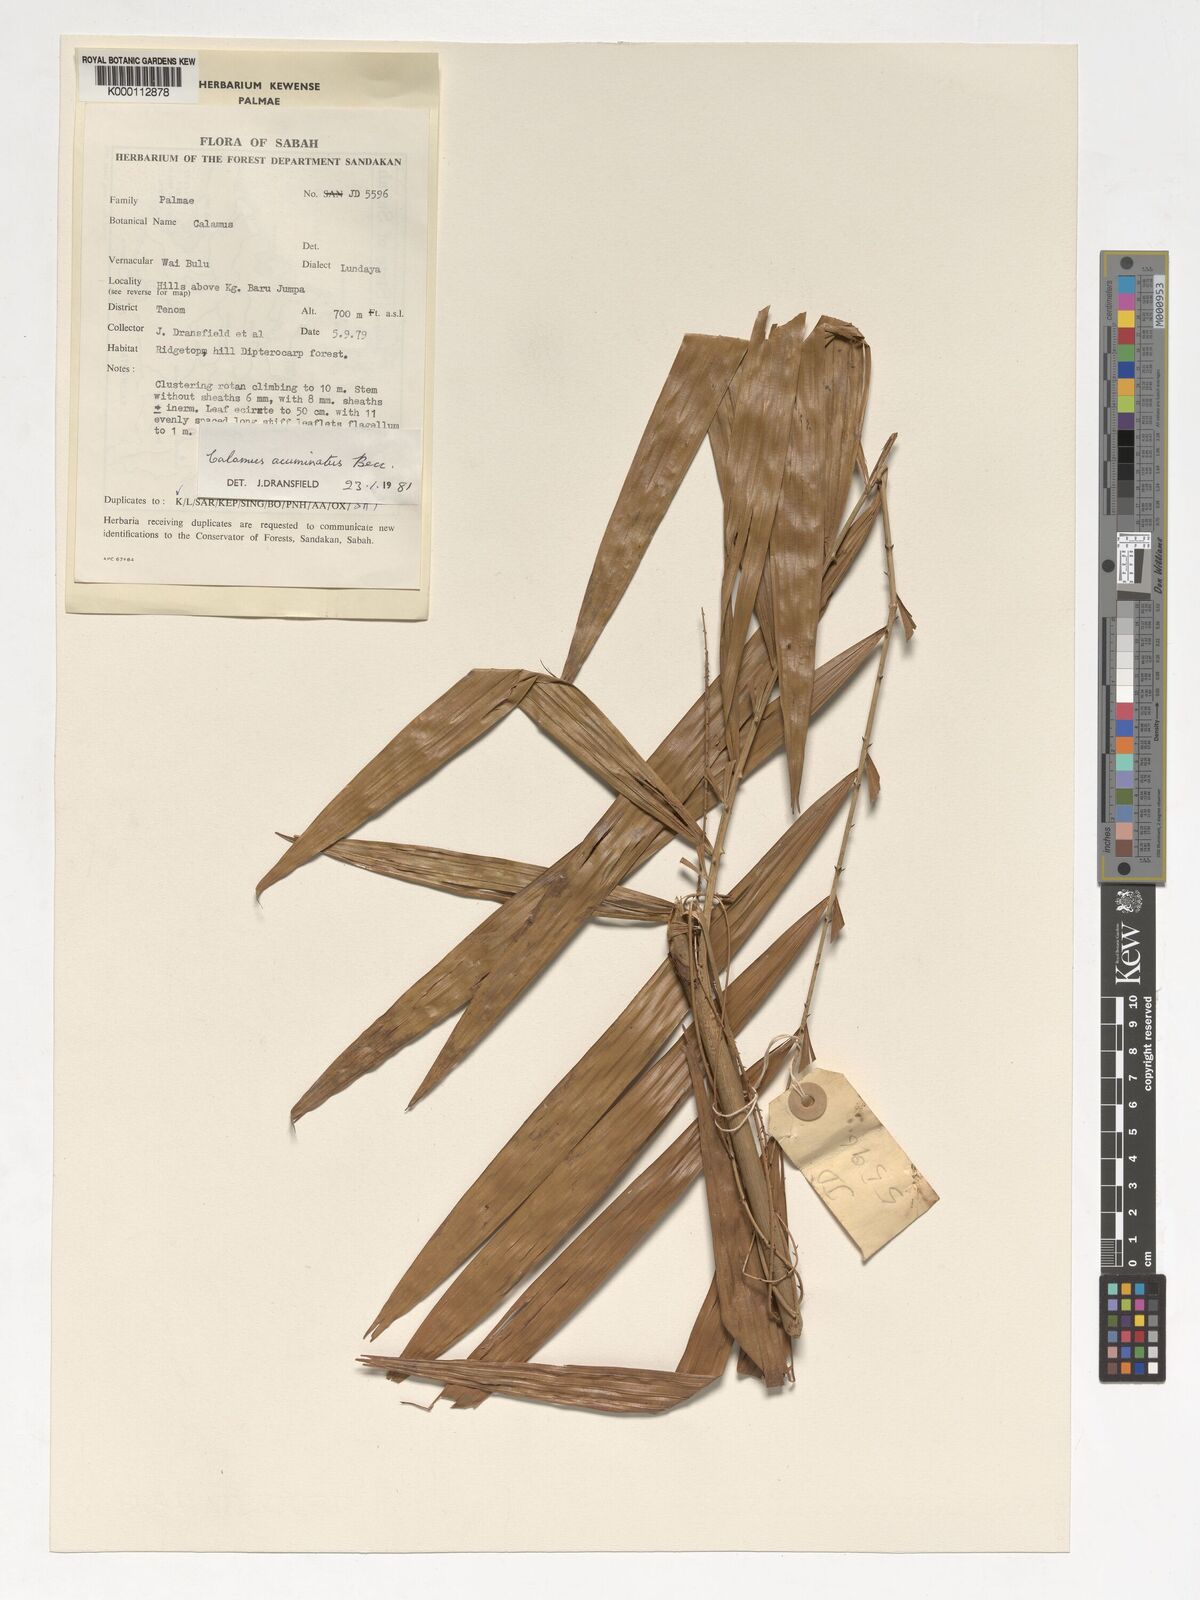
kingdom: Plantae
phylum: Tracheophyta
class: Liliopsida
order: Arecales
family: Arecaceae
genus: Calamus
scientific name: Calamus javensis
